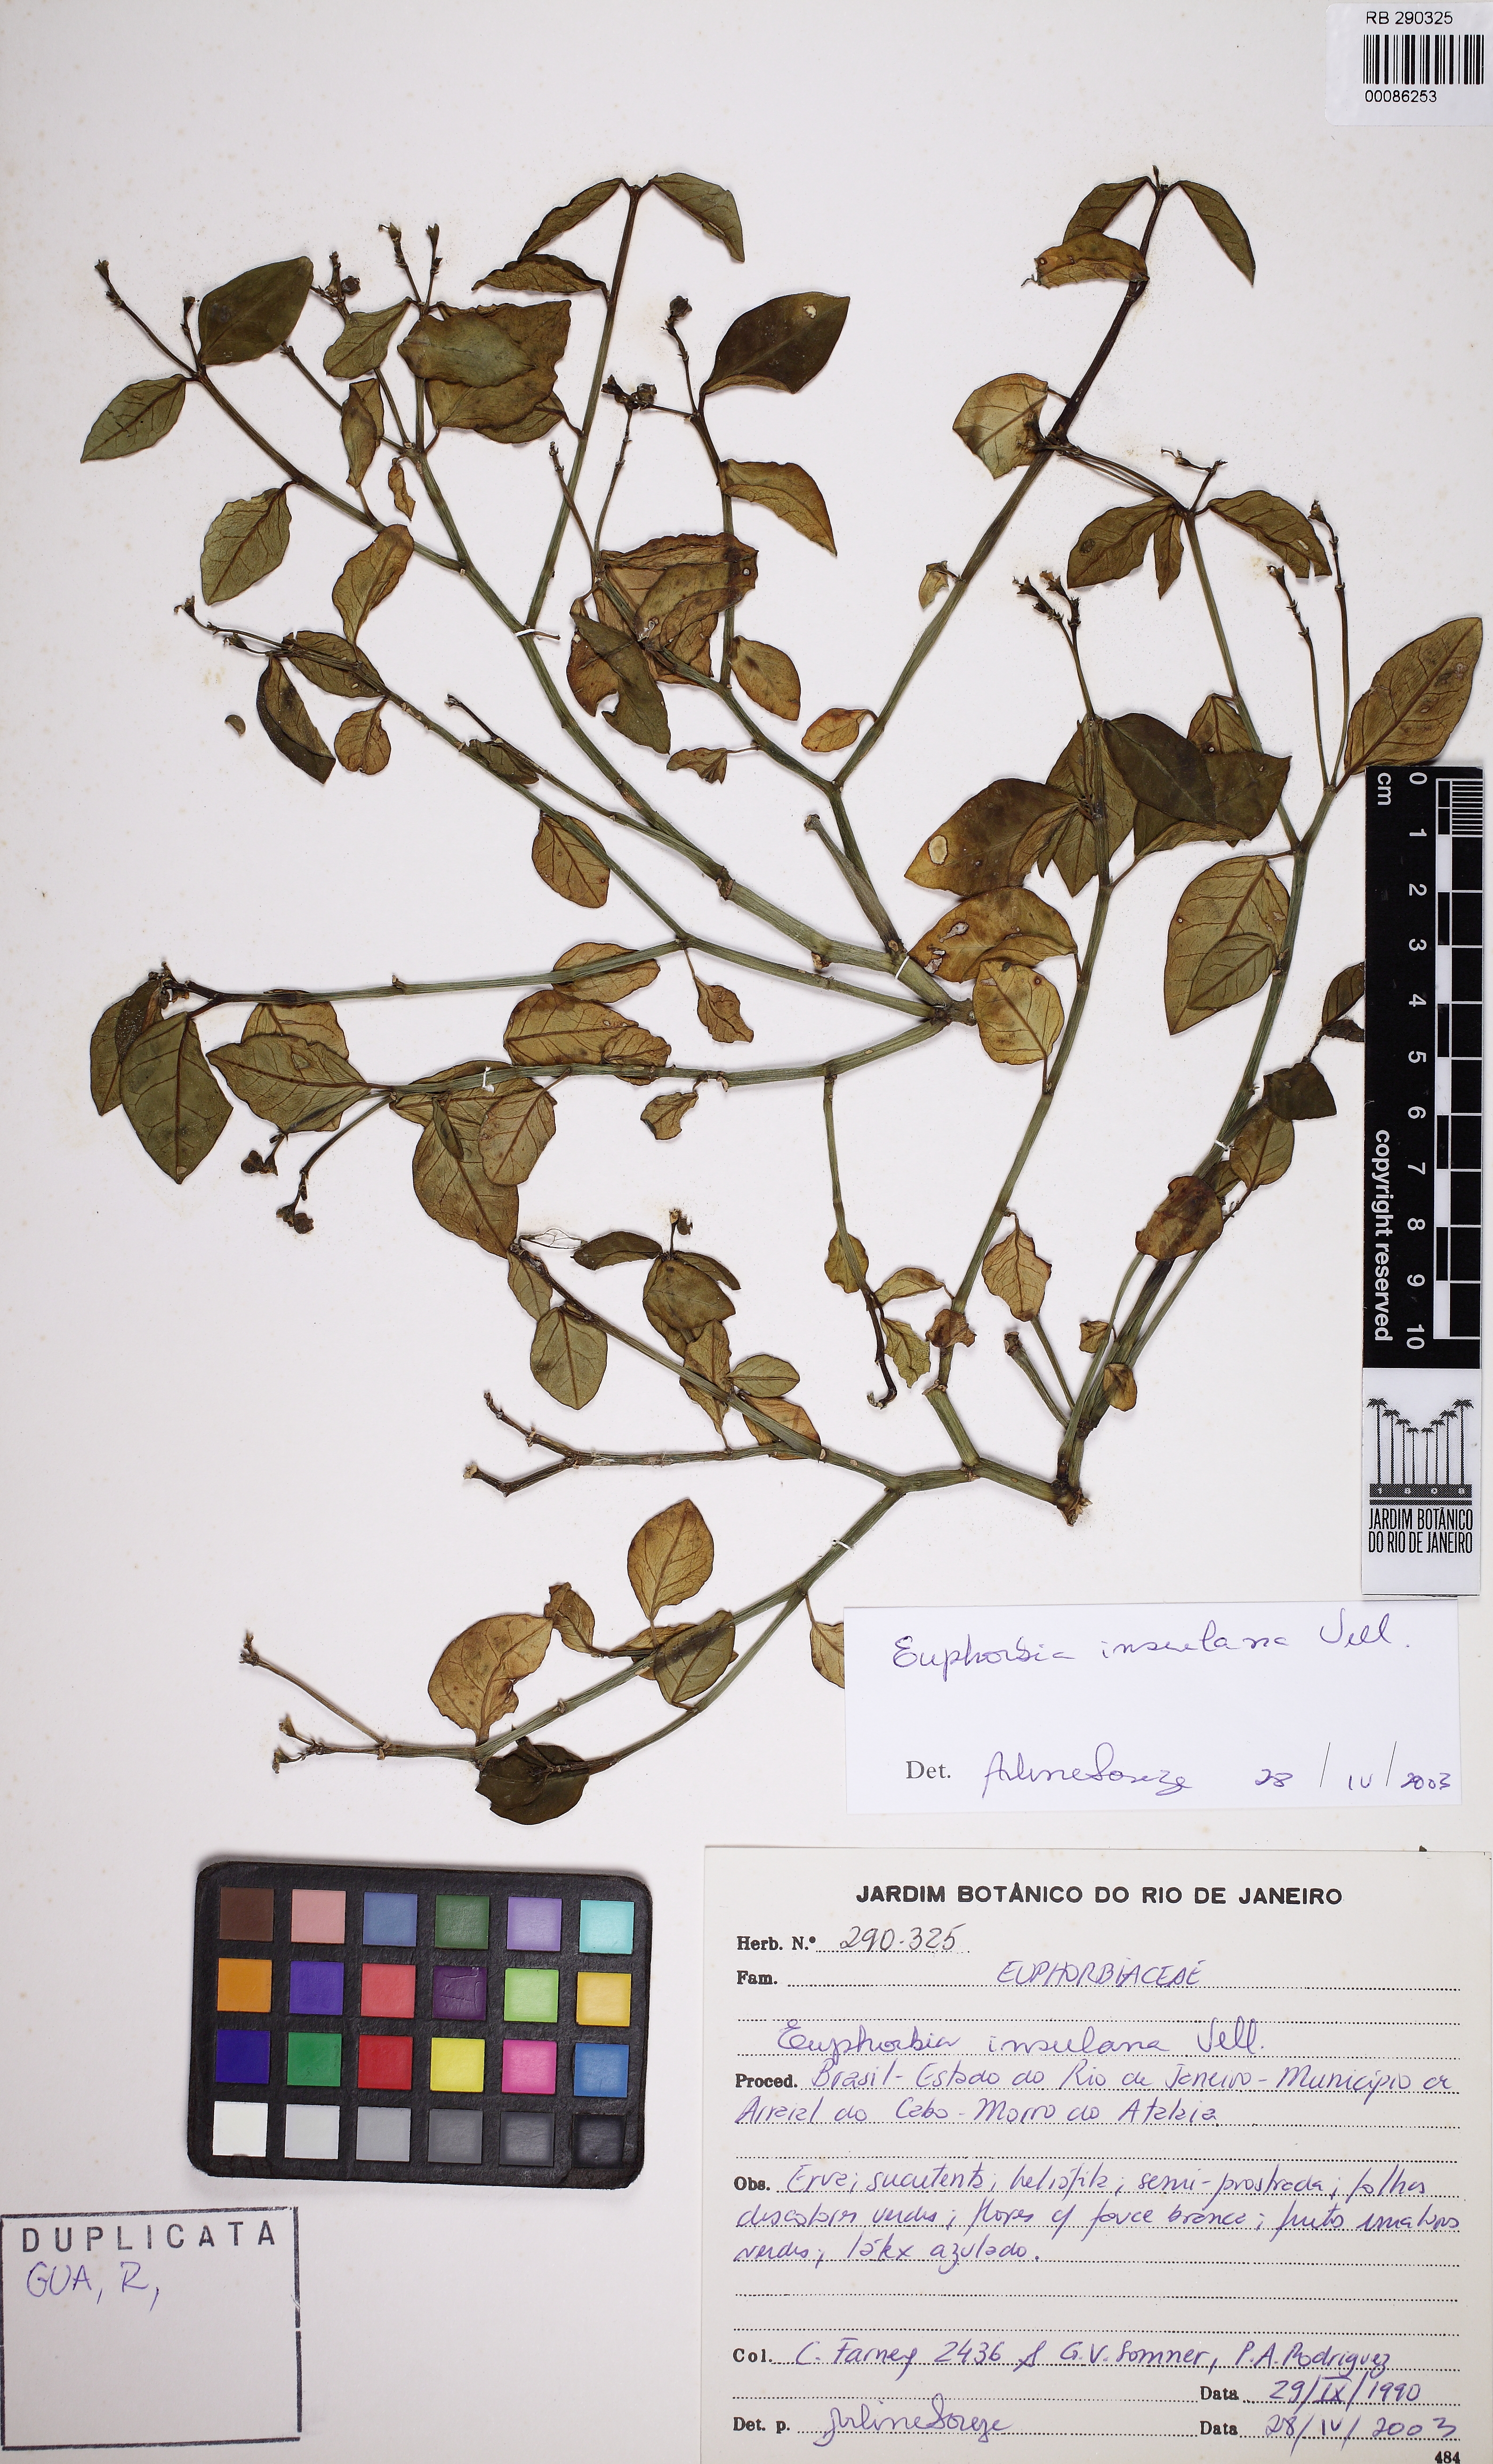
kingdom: Plantae
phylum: Tracheophyta
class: Magnoliopsida
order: Malpighiales
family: Euphorbiaceae
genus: Euphorbia
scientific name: Euphorbia sarcodes
